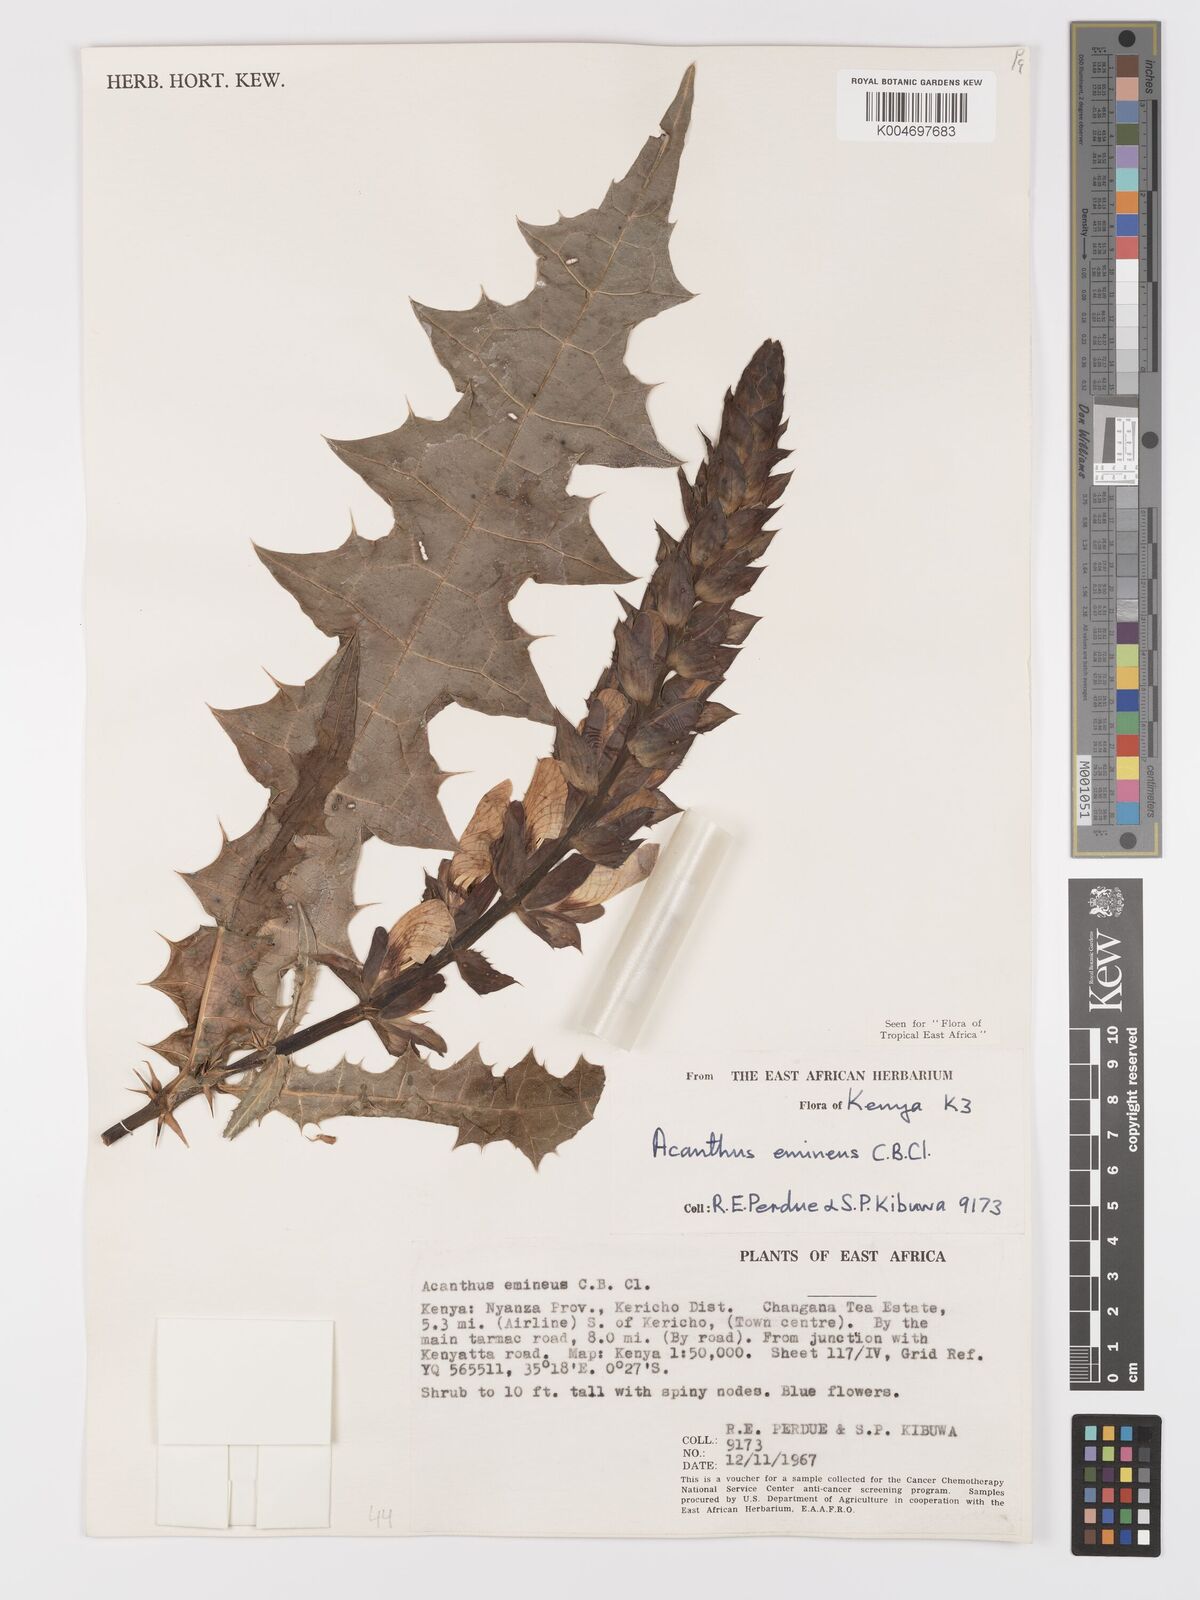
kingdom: Plantae
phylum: Tracheophyta
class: Magnoliopsida
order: Lamiales
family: Acanthaceae
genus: Acanthus
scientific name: Acanthus eminens
